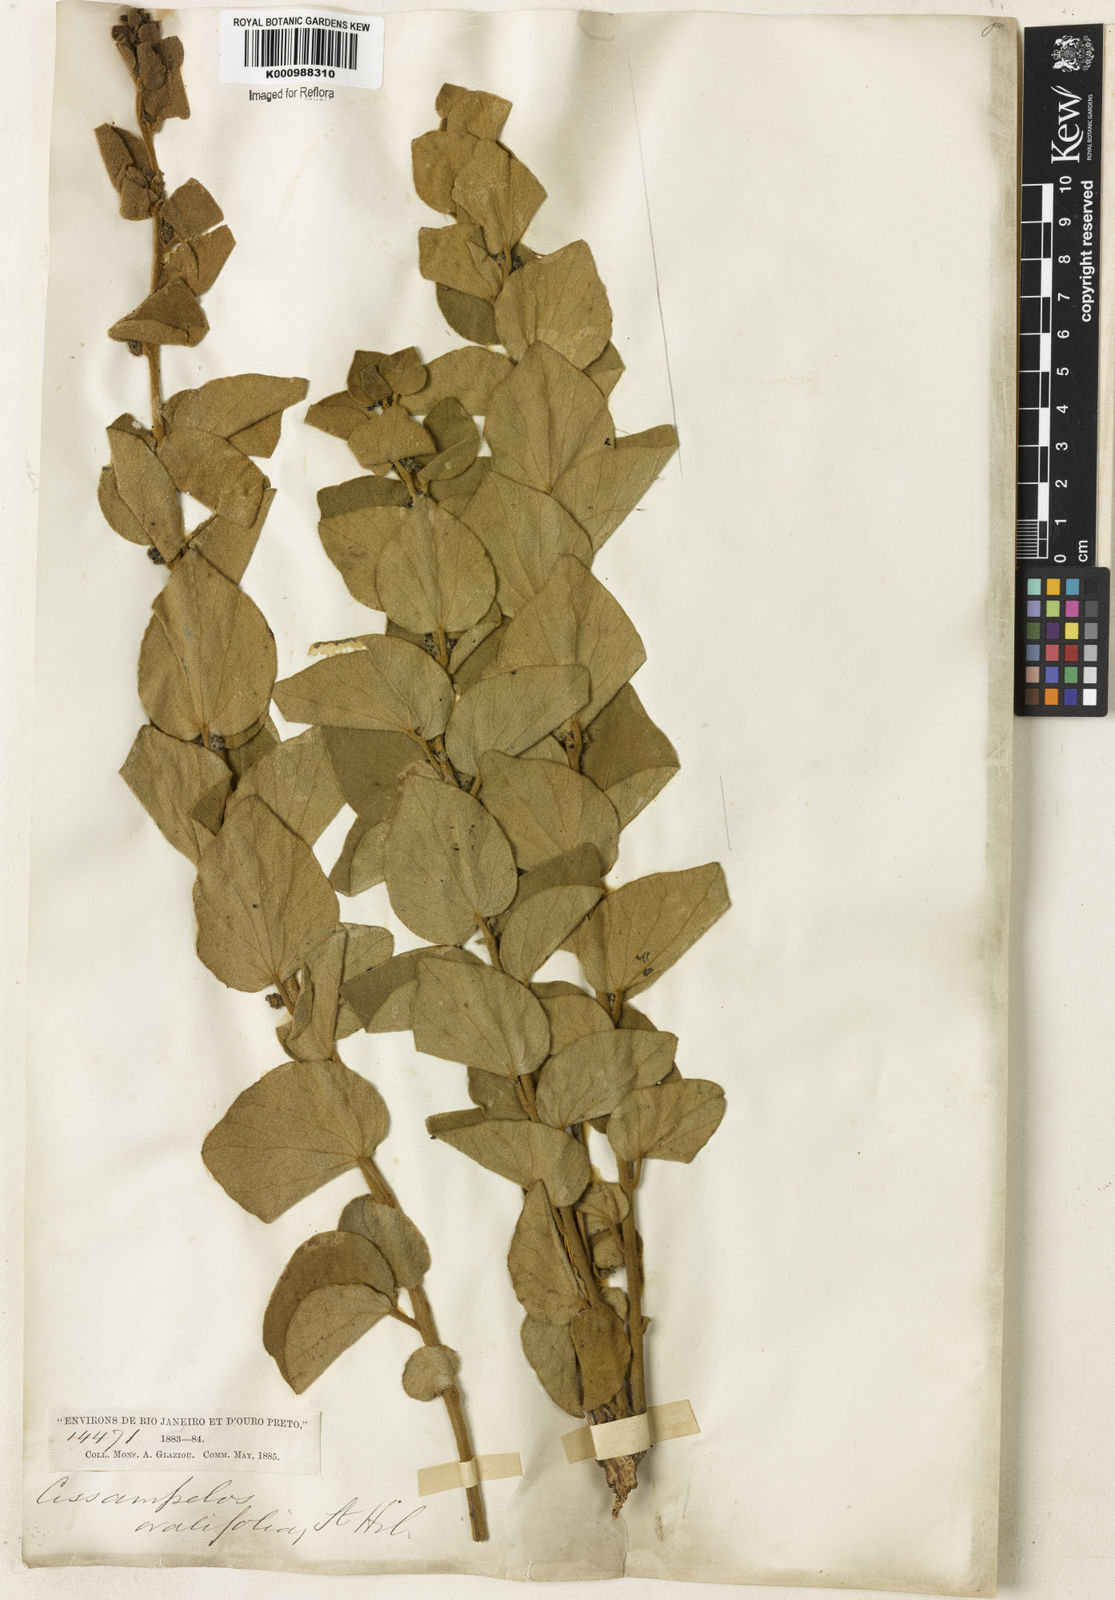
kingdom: Plantae
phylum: Tracheophyta
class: Magnoliopsida
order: Ranunculales
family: Menispermaceae
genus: Cissampelos
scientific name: Cissampelos ovalifolia
